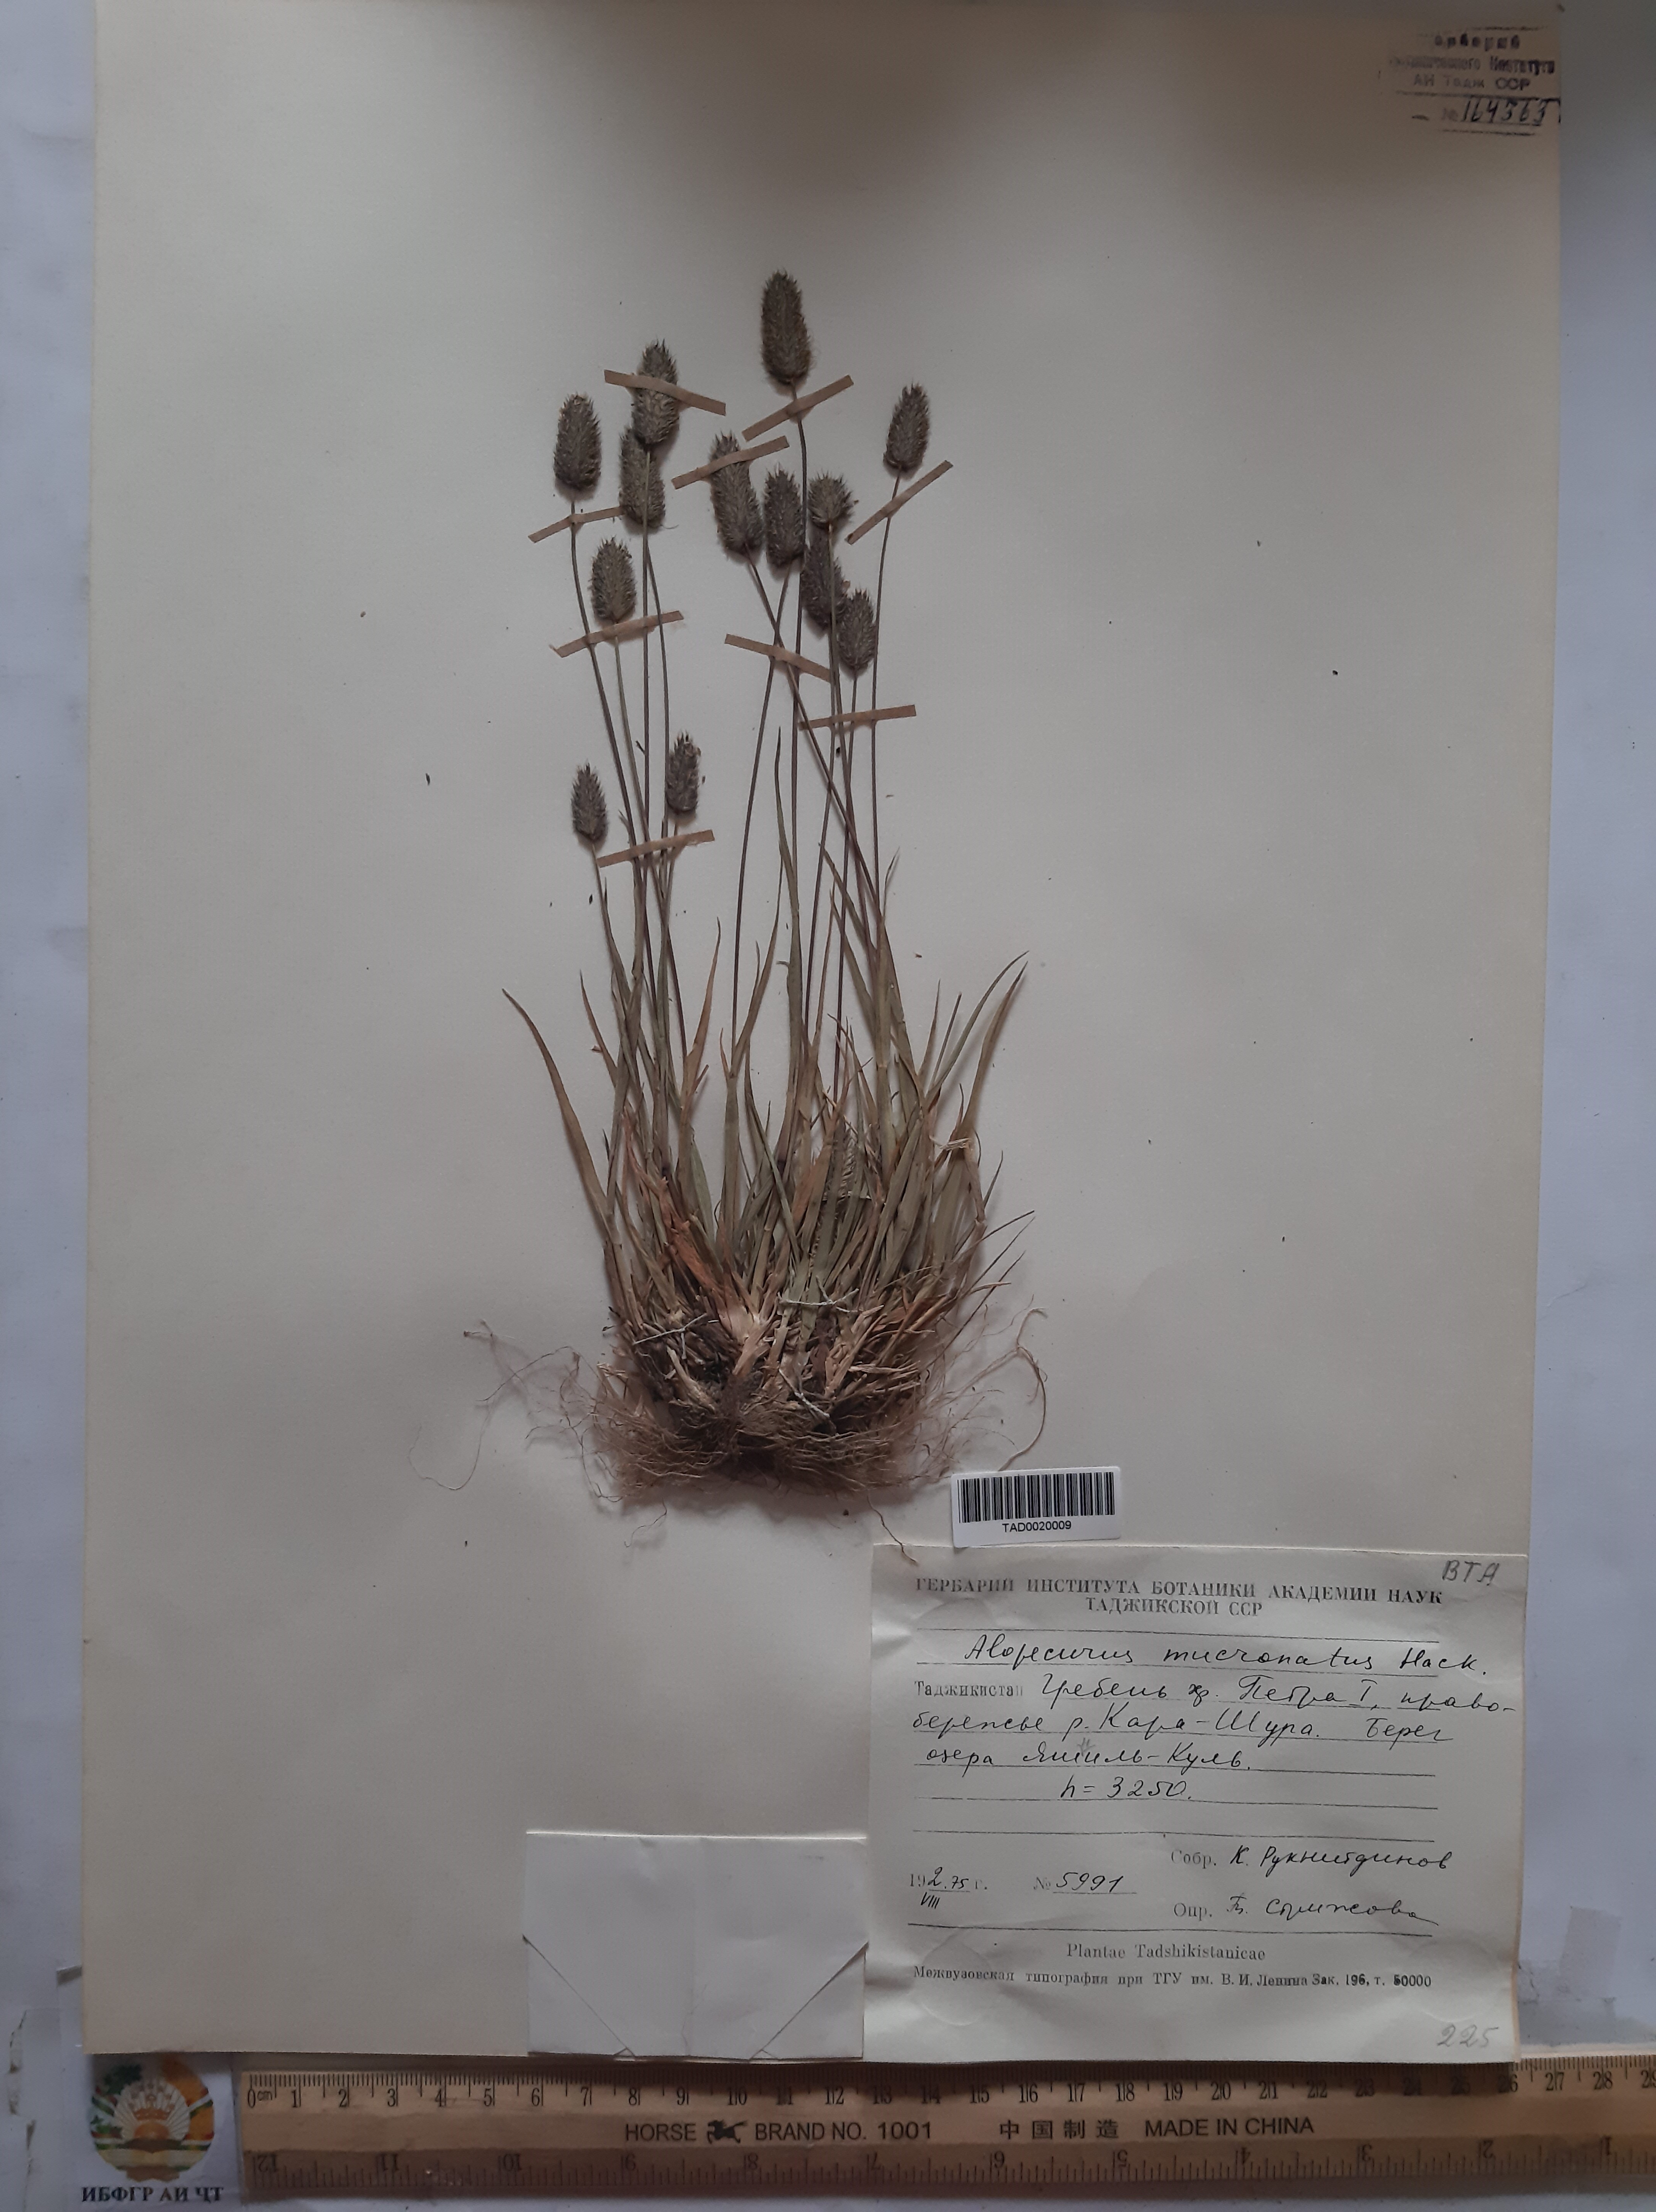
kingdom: Plantae
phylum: Tracheophyta
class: Liliopsida
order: Poales
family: Poaceae
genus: Alopecurus
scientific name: Alopecurus mucronatus
